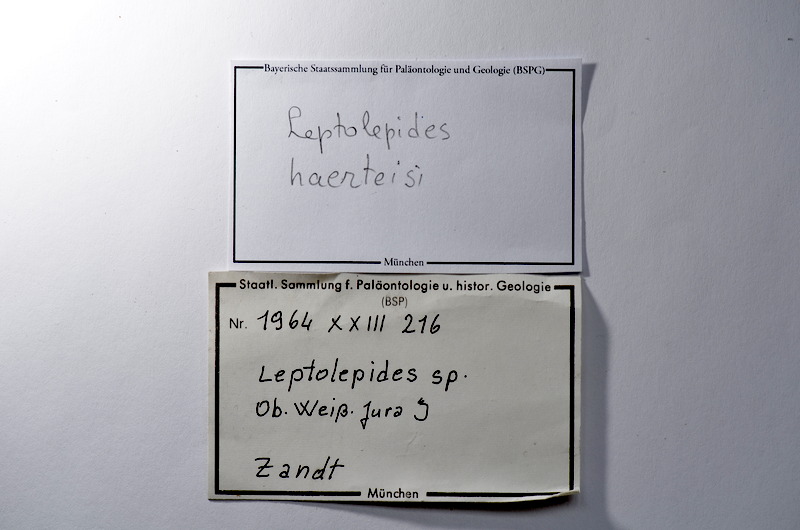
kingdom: Animalia
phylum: Chordata
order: Salmoniformes
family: Orthogonikleithridae
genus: Leptolepides
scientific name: Leptolepides haerteisi
